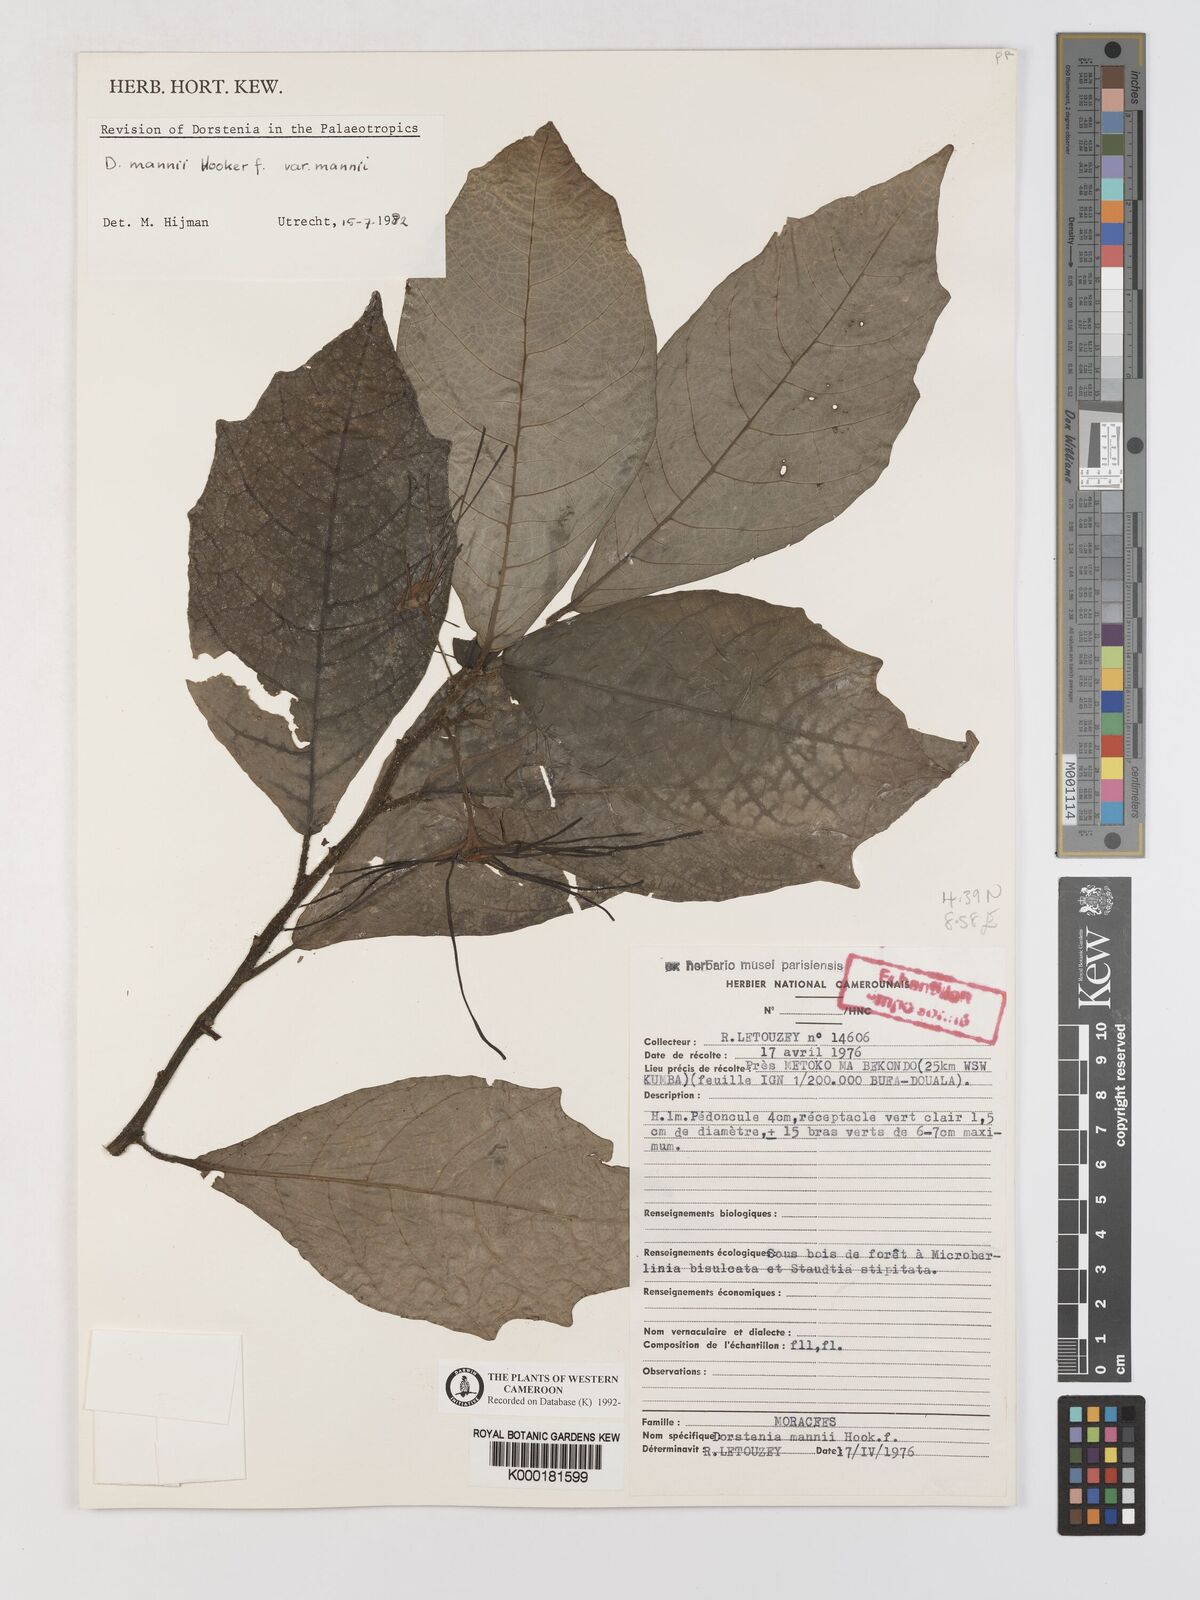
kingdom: Plantae
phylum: Tracheophyta
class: Magnoliopsida
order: Rosales
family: Moraceae
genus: Dorstenia
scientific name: Dorstenia mannii
